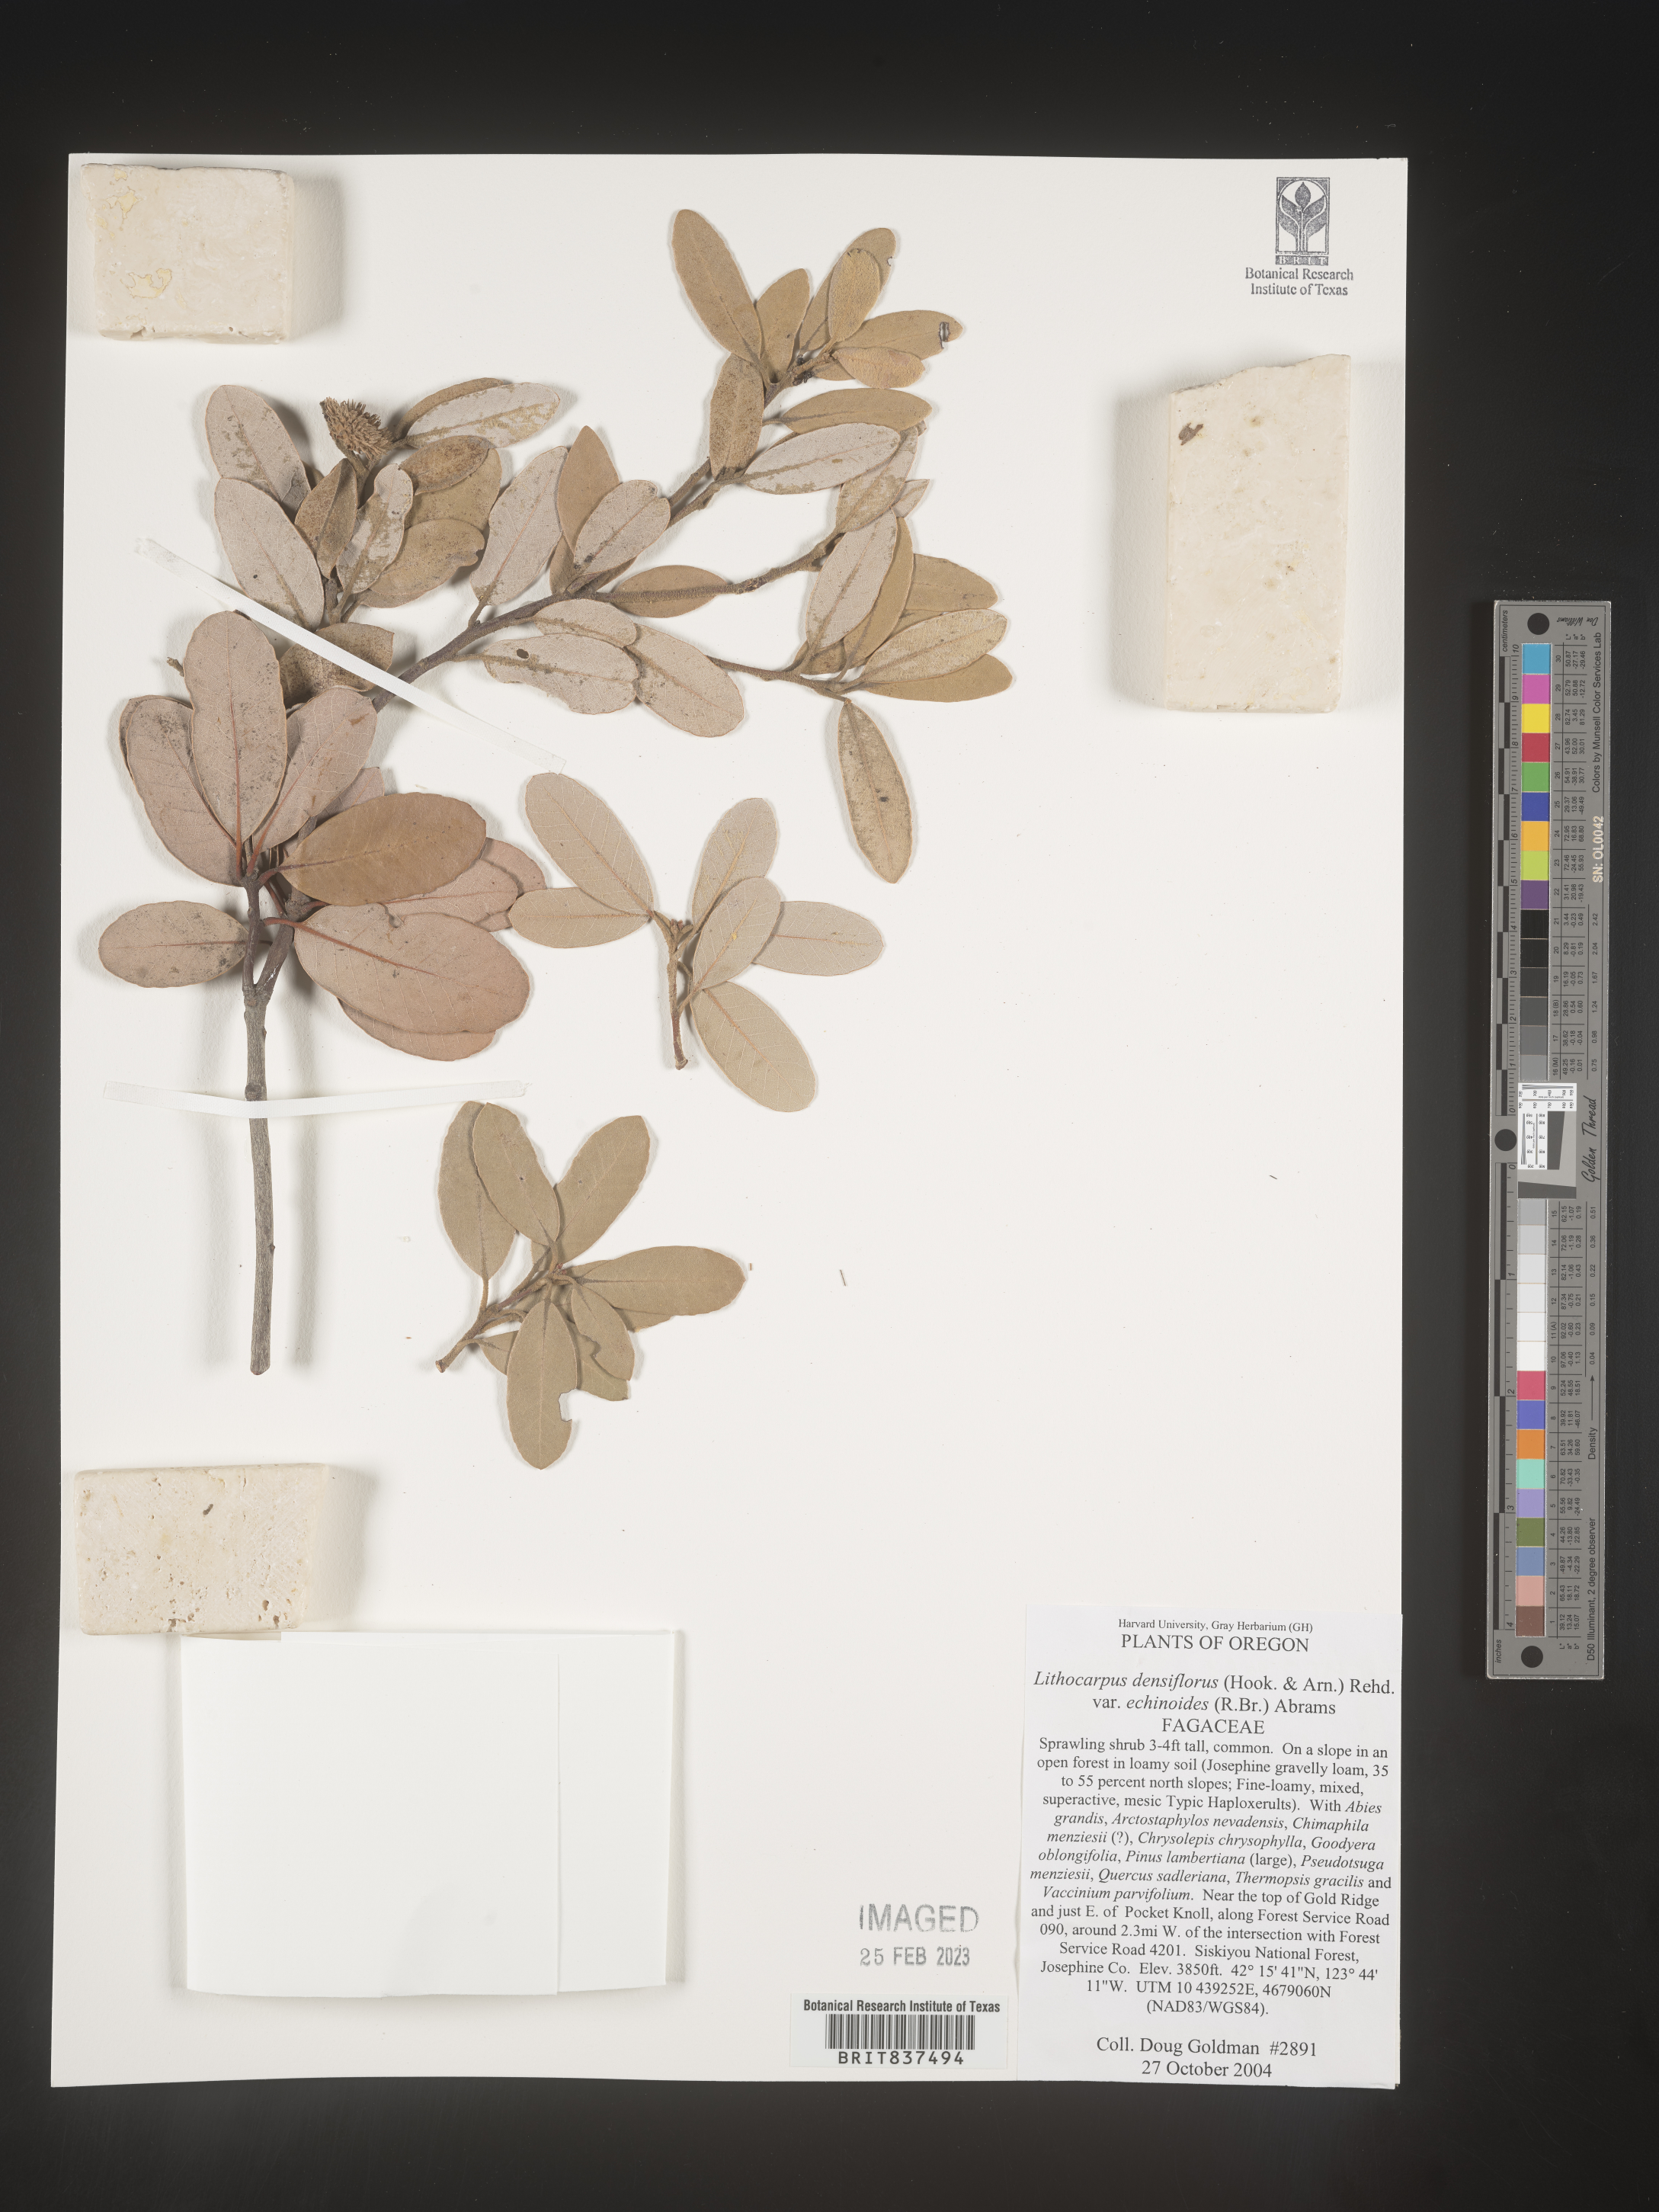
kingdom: Plantae
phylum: Tracheophyta
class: Magnoliopsida
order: Fagales
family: Fagaceae
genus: Lithocarpus
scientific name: Lithocarpus
